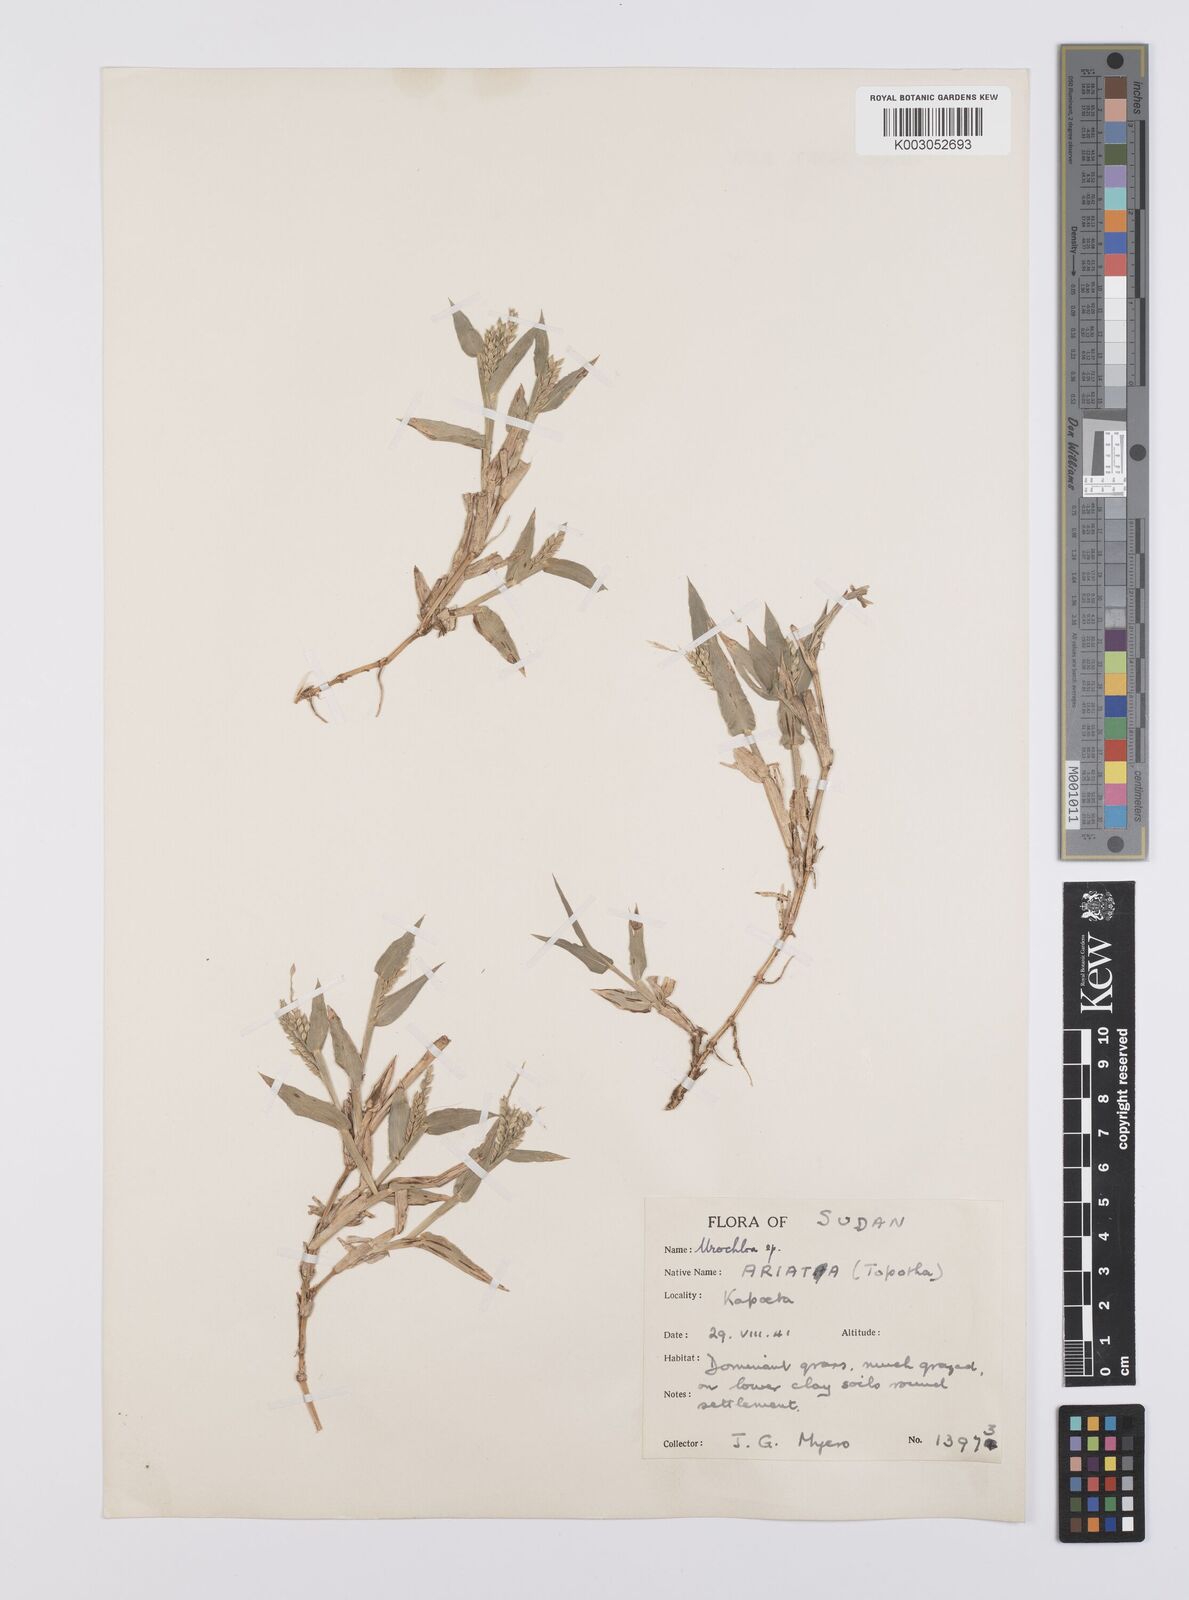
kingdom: Plantae
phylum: Tracheophyta
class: Liliopsida
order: Poales
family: Poaceae
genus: Urochloa
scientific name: Urochloa panicoides
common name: Sharp-flowered signal-grass
